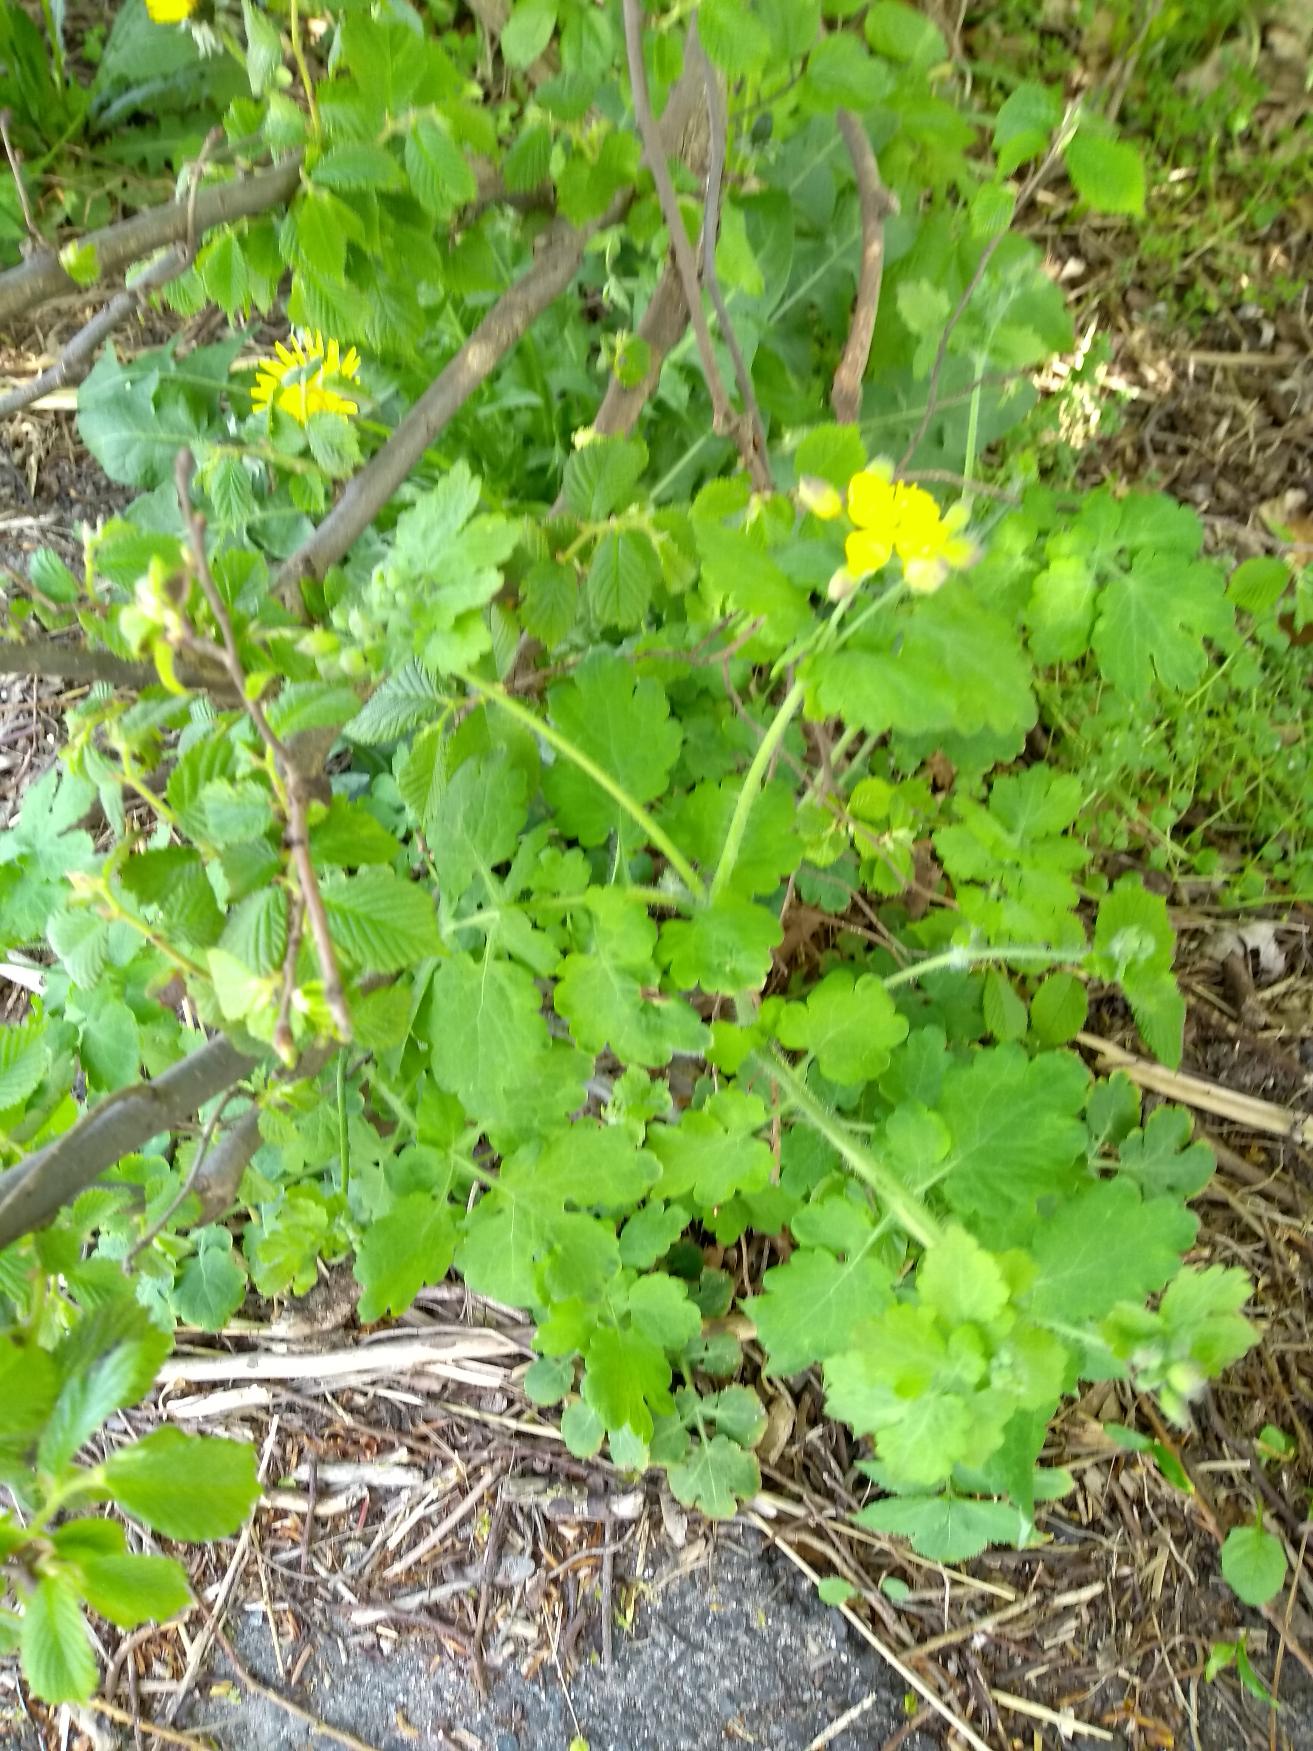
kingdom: Plantae
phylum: Tracheophyta
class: Magnoliopsida
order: Ranunculales
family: Papaveraceae
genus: Chelidonium
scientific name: Chelidonium majus
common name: Svaleurt
